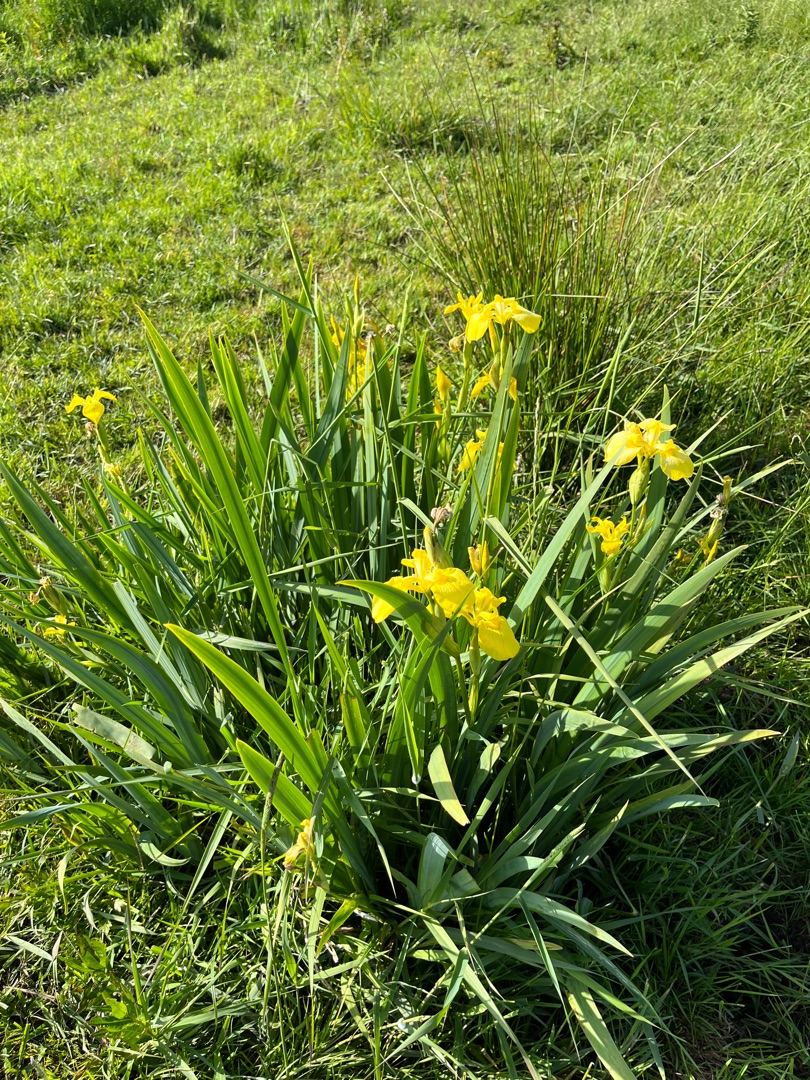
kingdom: Plantae
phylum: Tracheophyta
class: Liliopsida
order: Asparagales
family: Iridaceae
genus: Iris
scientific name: Iris pseudacorus
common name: Gul iris
